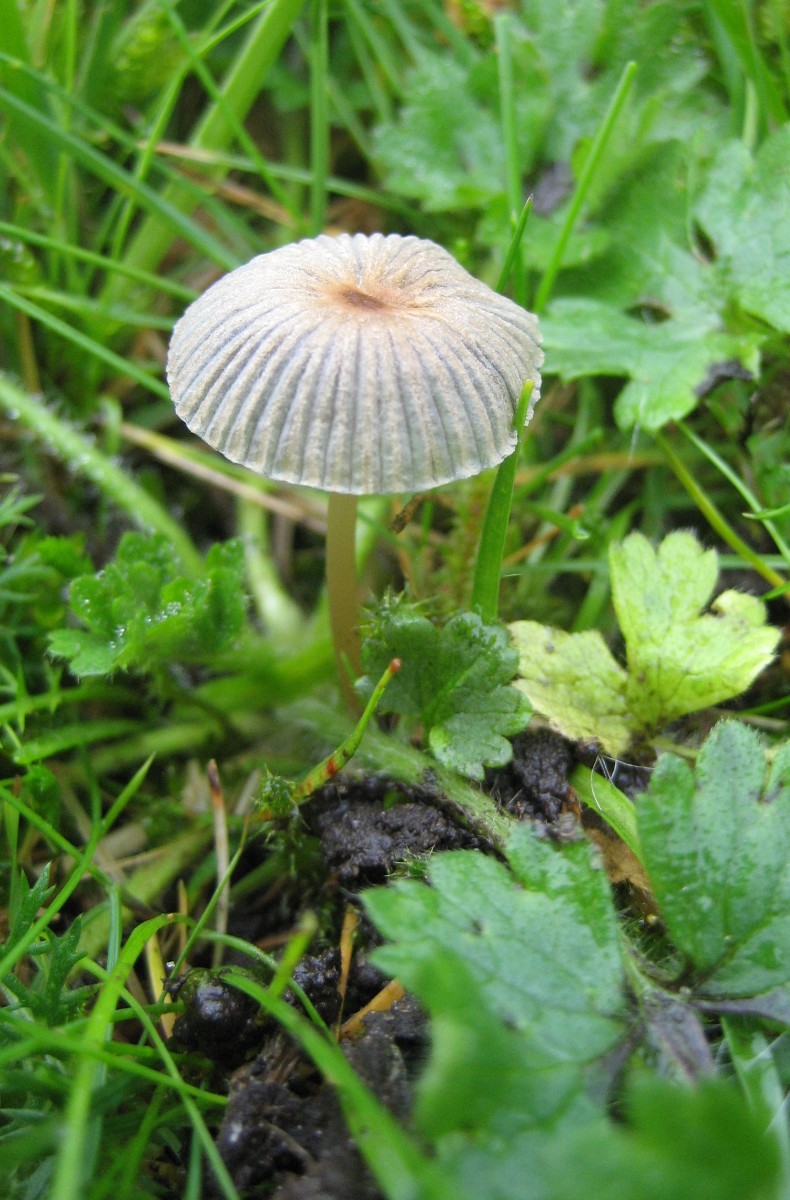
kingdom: Fungi
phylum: Basidiomycota
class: Agaricomycetes
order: Agaricales
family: Psathyrellaceae
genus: Parasola
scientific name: Parasola
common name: hjulhat
